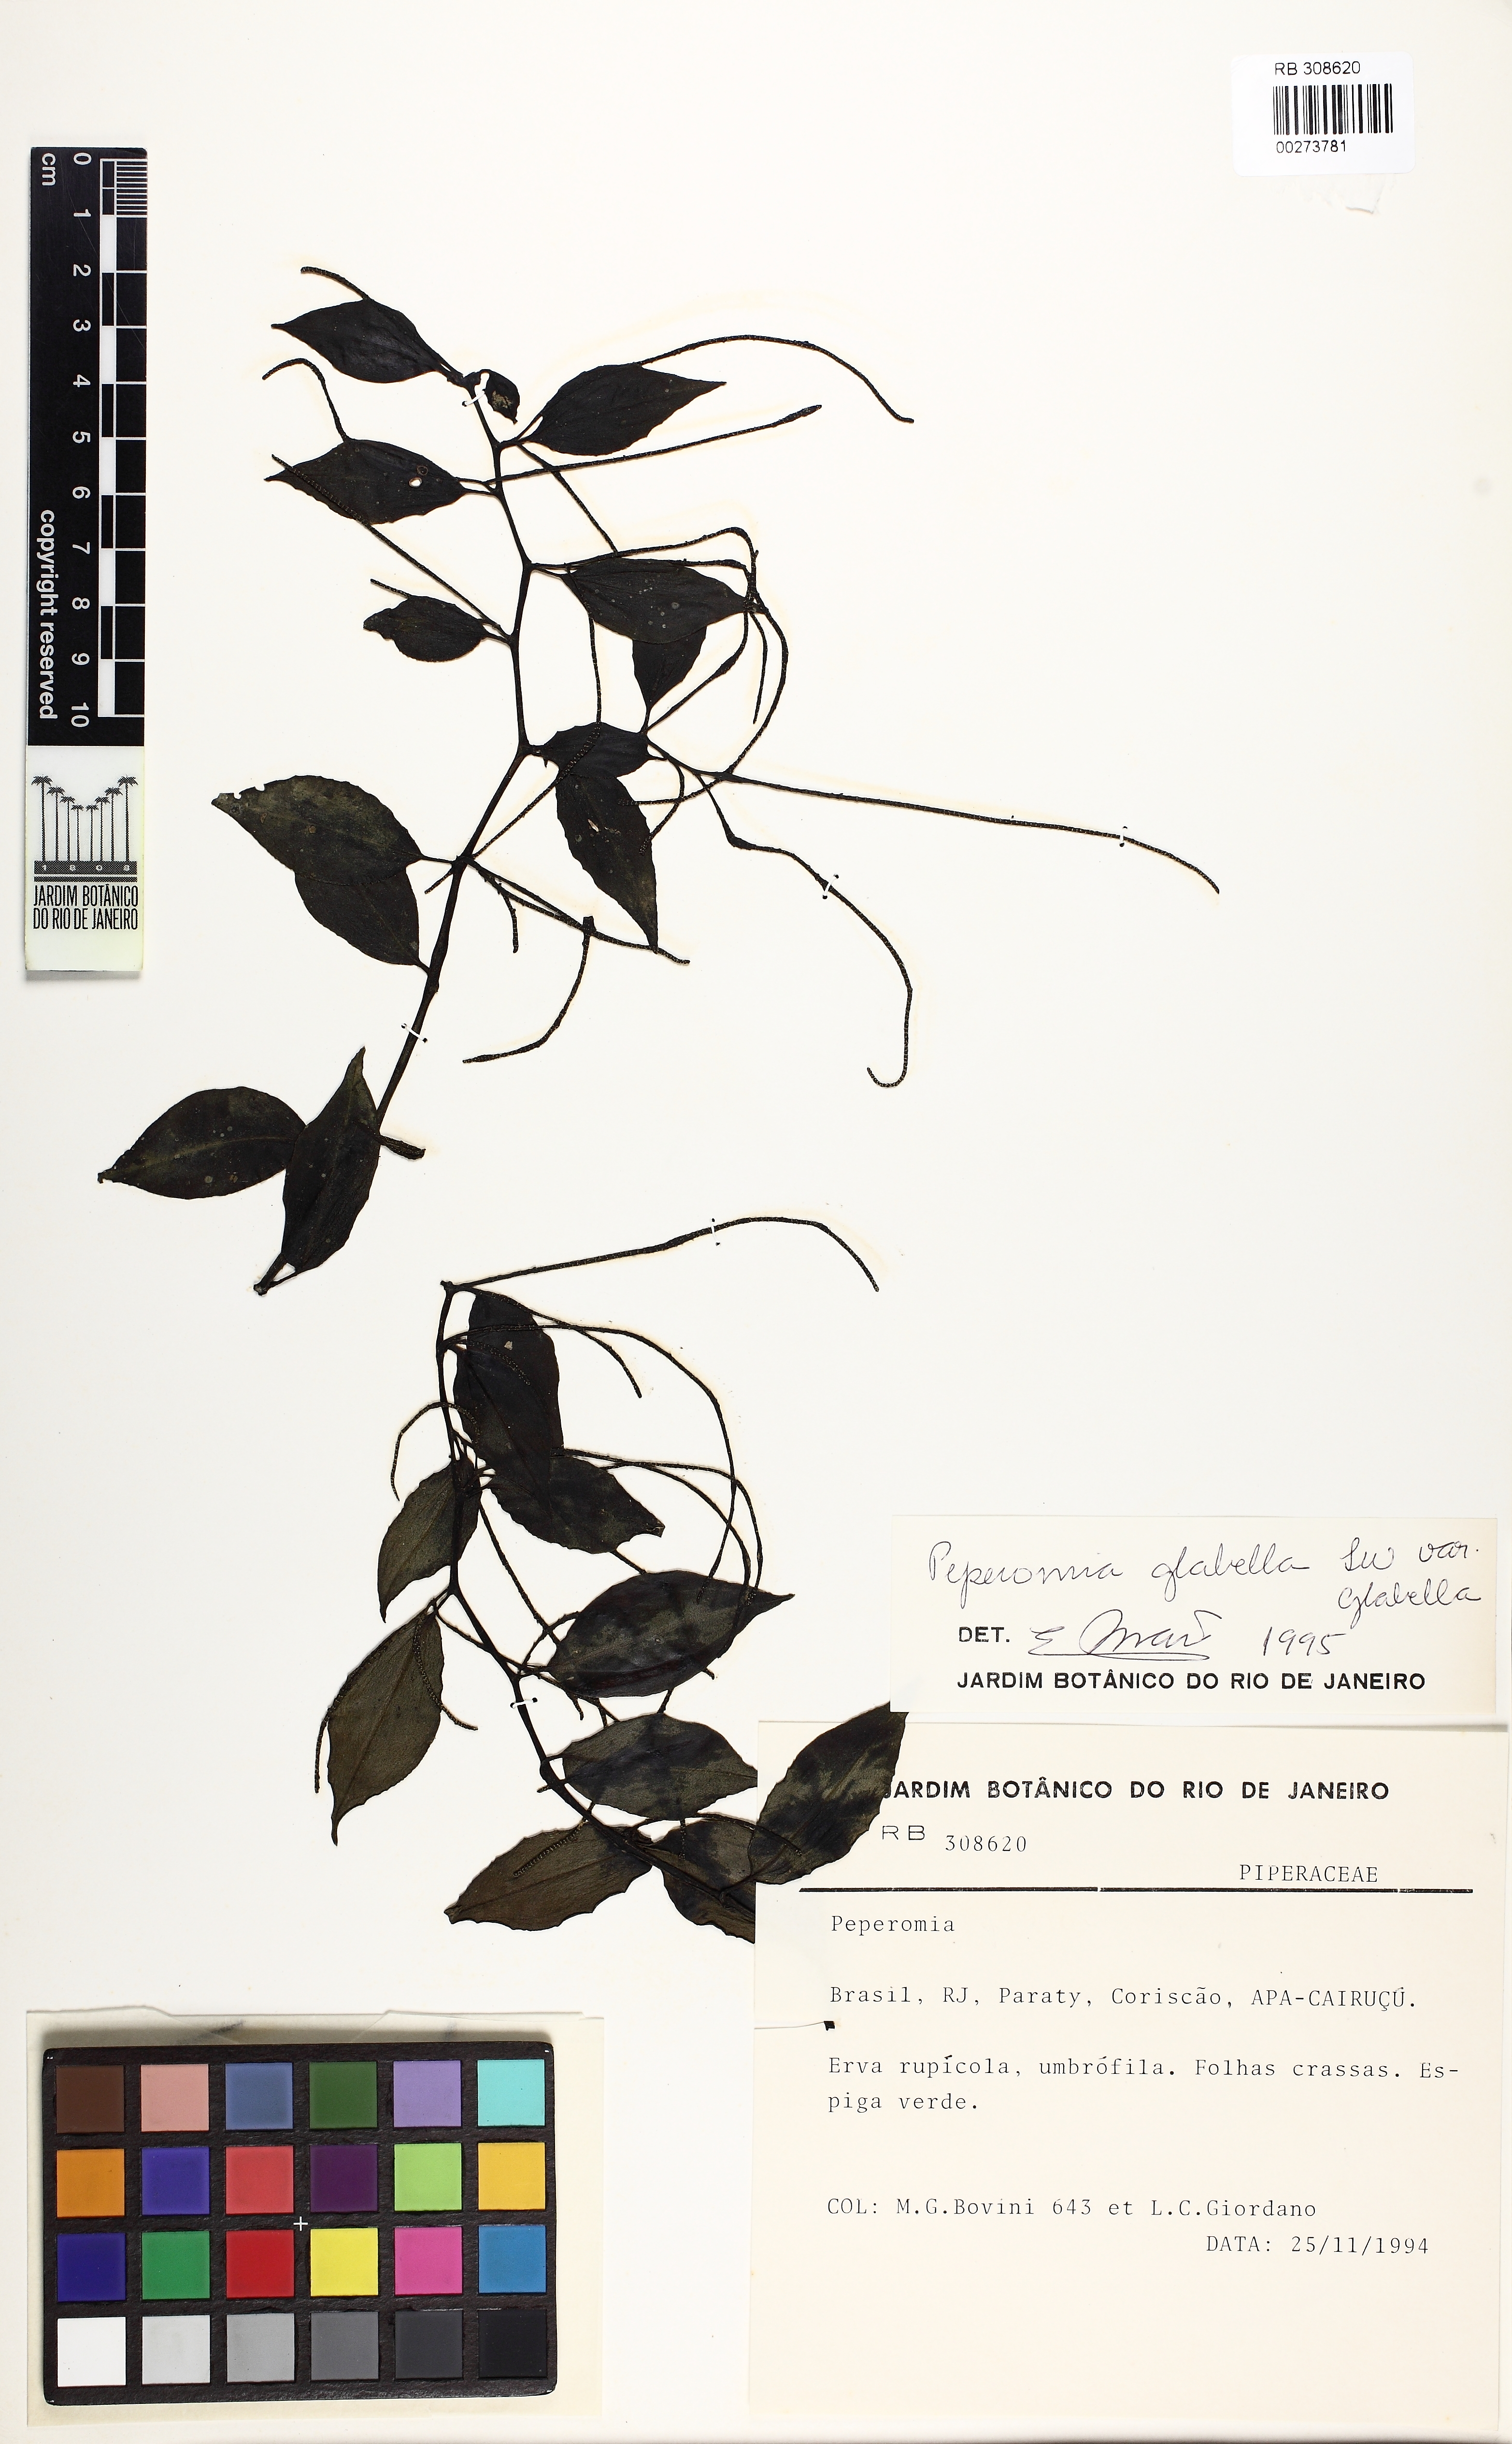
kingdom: Plantae
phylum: Tracheophyta
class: Magnoliopsida
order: Piperales
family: Piperaceae
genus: Peperomia
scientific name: Peperomia glabella
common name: Cypress peperomia
